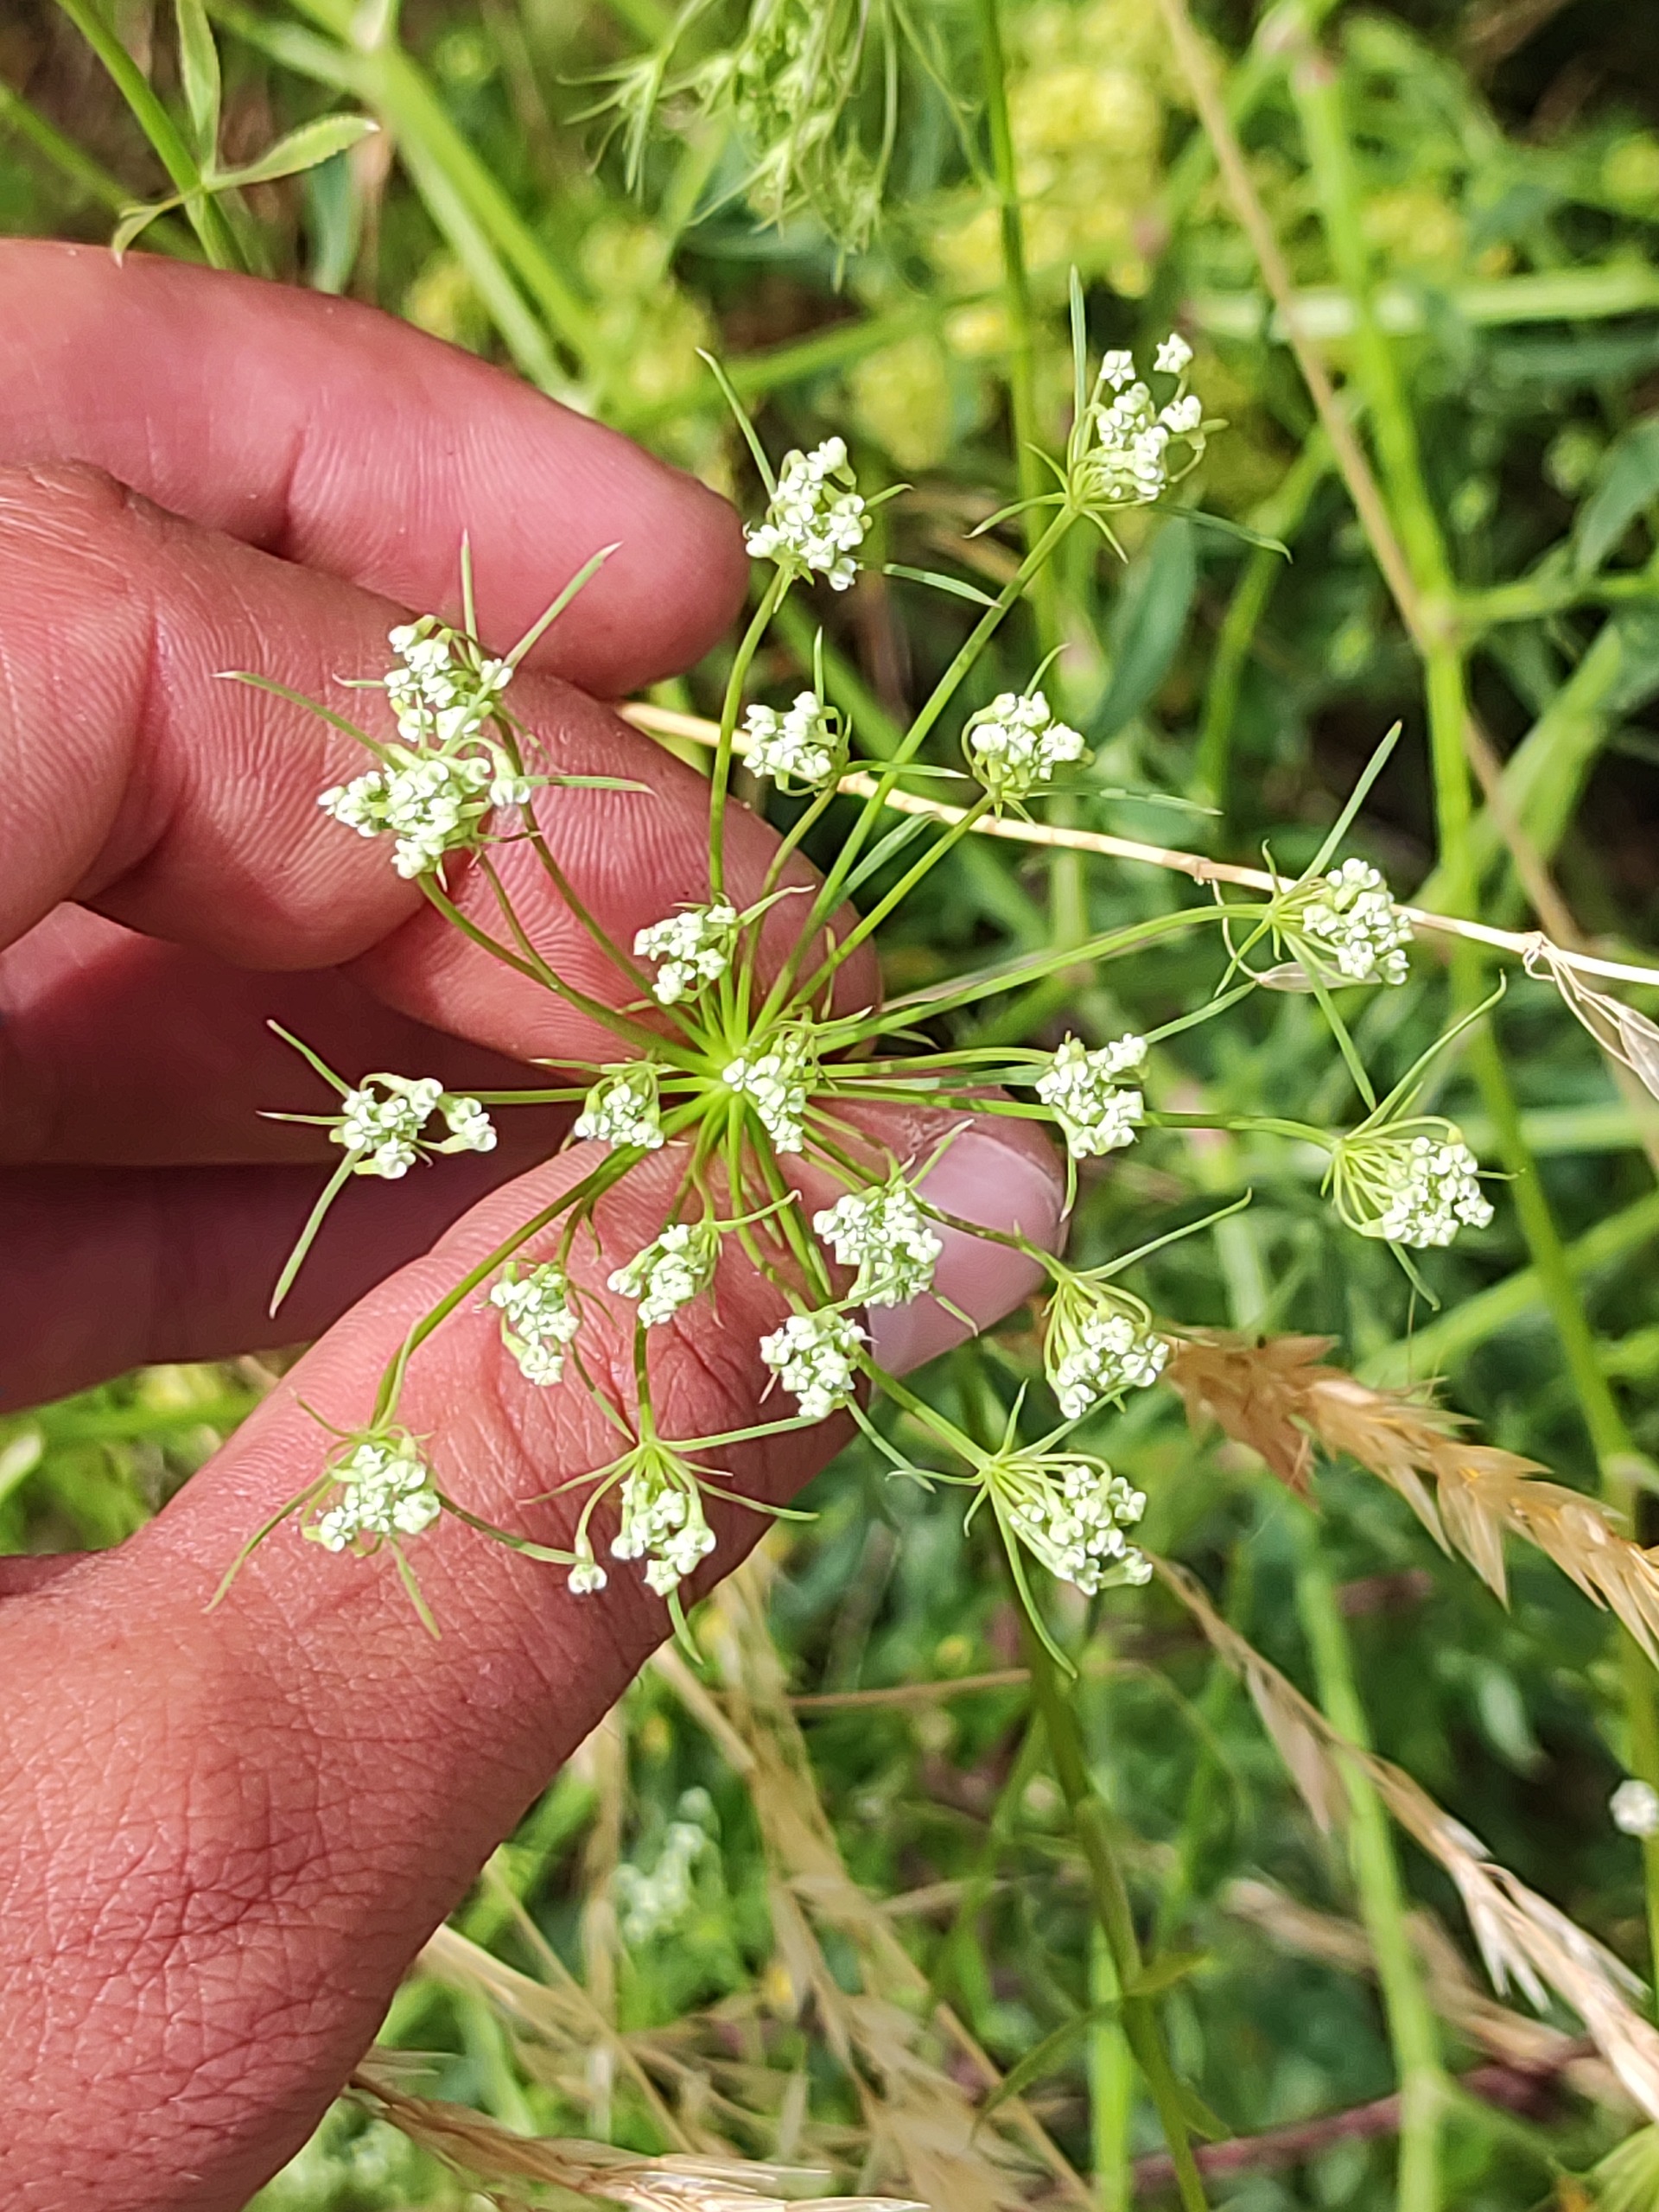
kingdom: Plantae
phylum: Tracheophyta
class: Magnoliopsida
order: Apiales
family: Apiaceae
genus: Falcaria
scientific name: Falcaria vulgaris
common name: Seglblad
